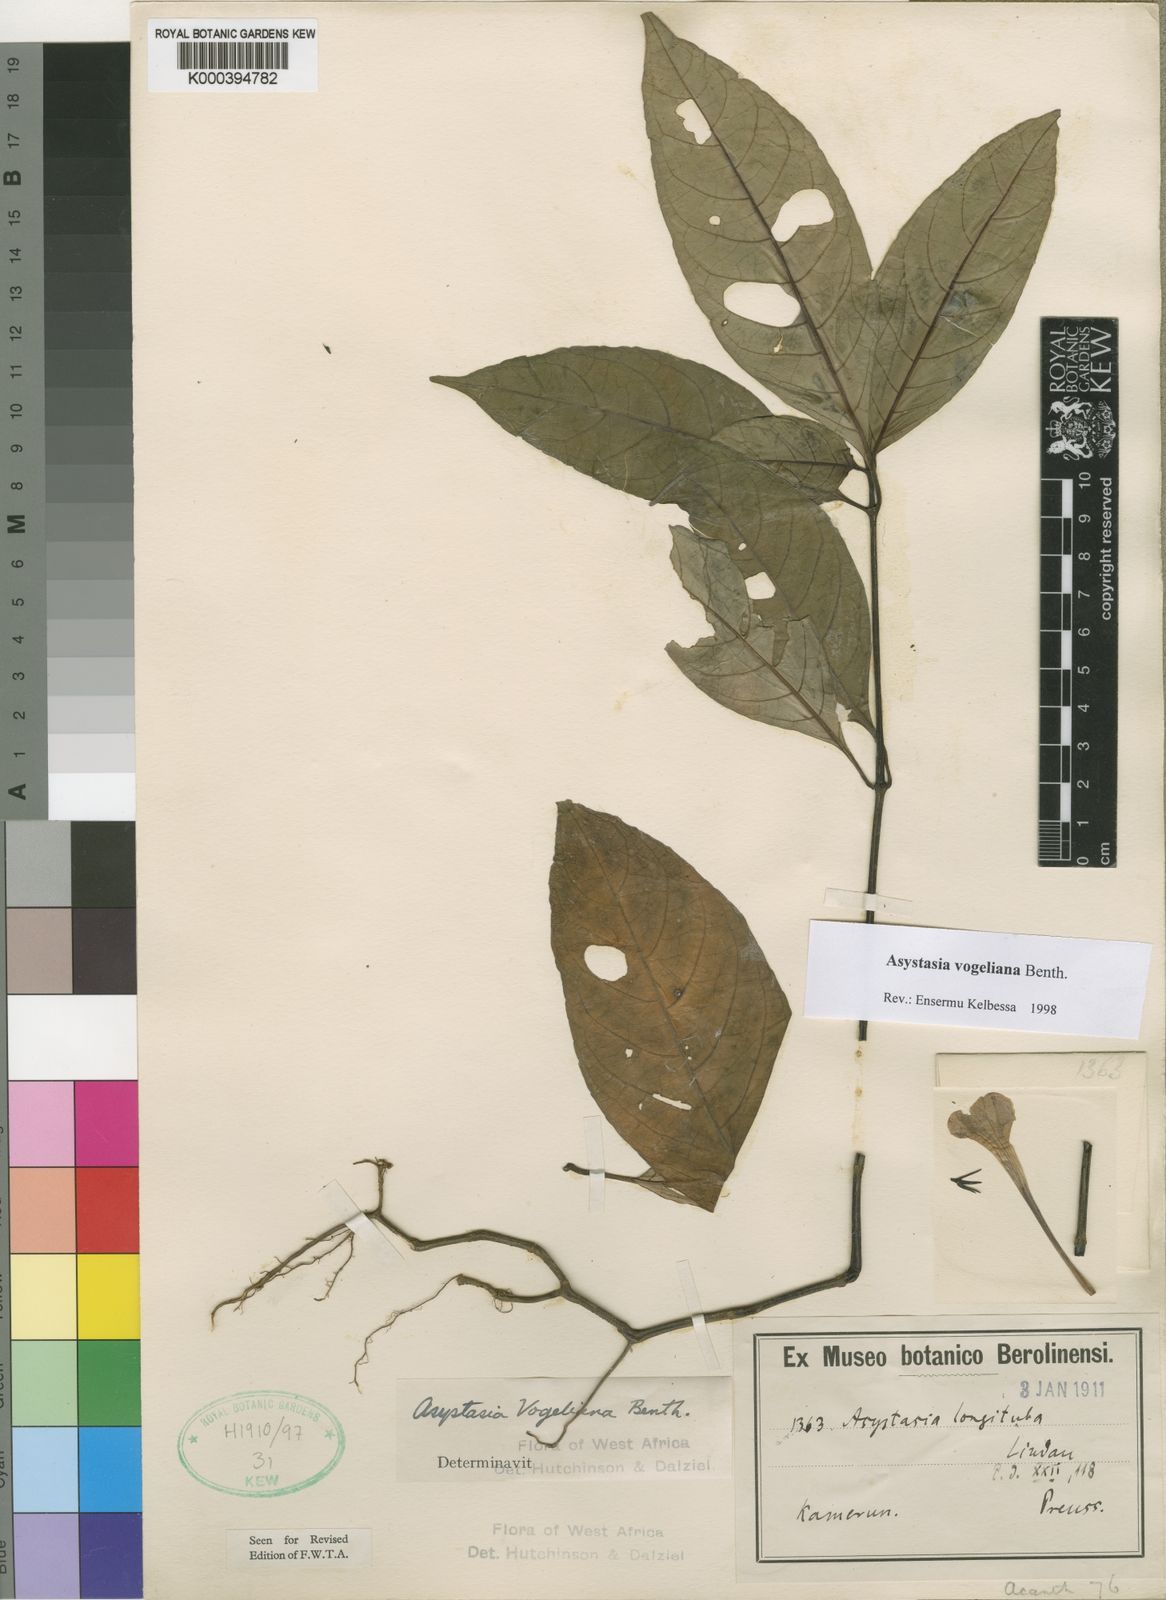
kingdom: Plantae
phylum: Tracheophyta
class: Magnoliopsida
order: Lamiales
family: Acanthaceae
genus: Asystasia
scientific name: Asystasia vogeliana
